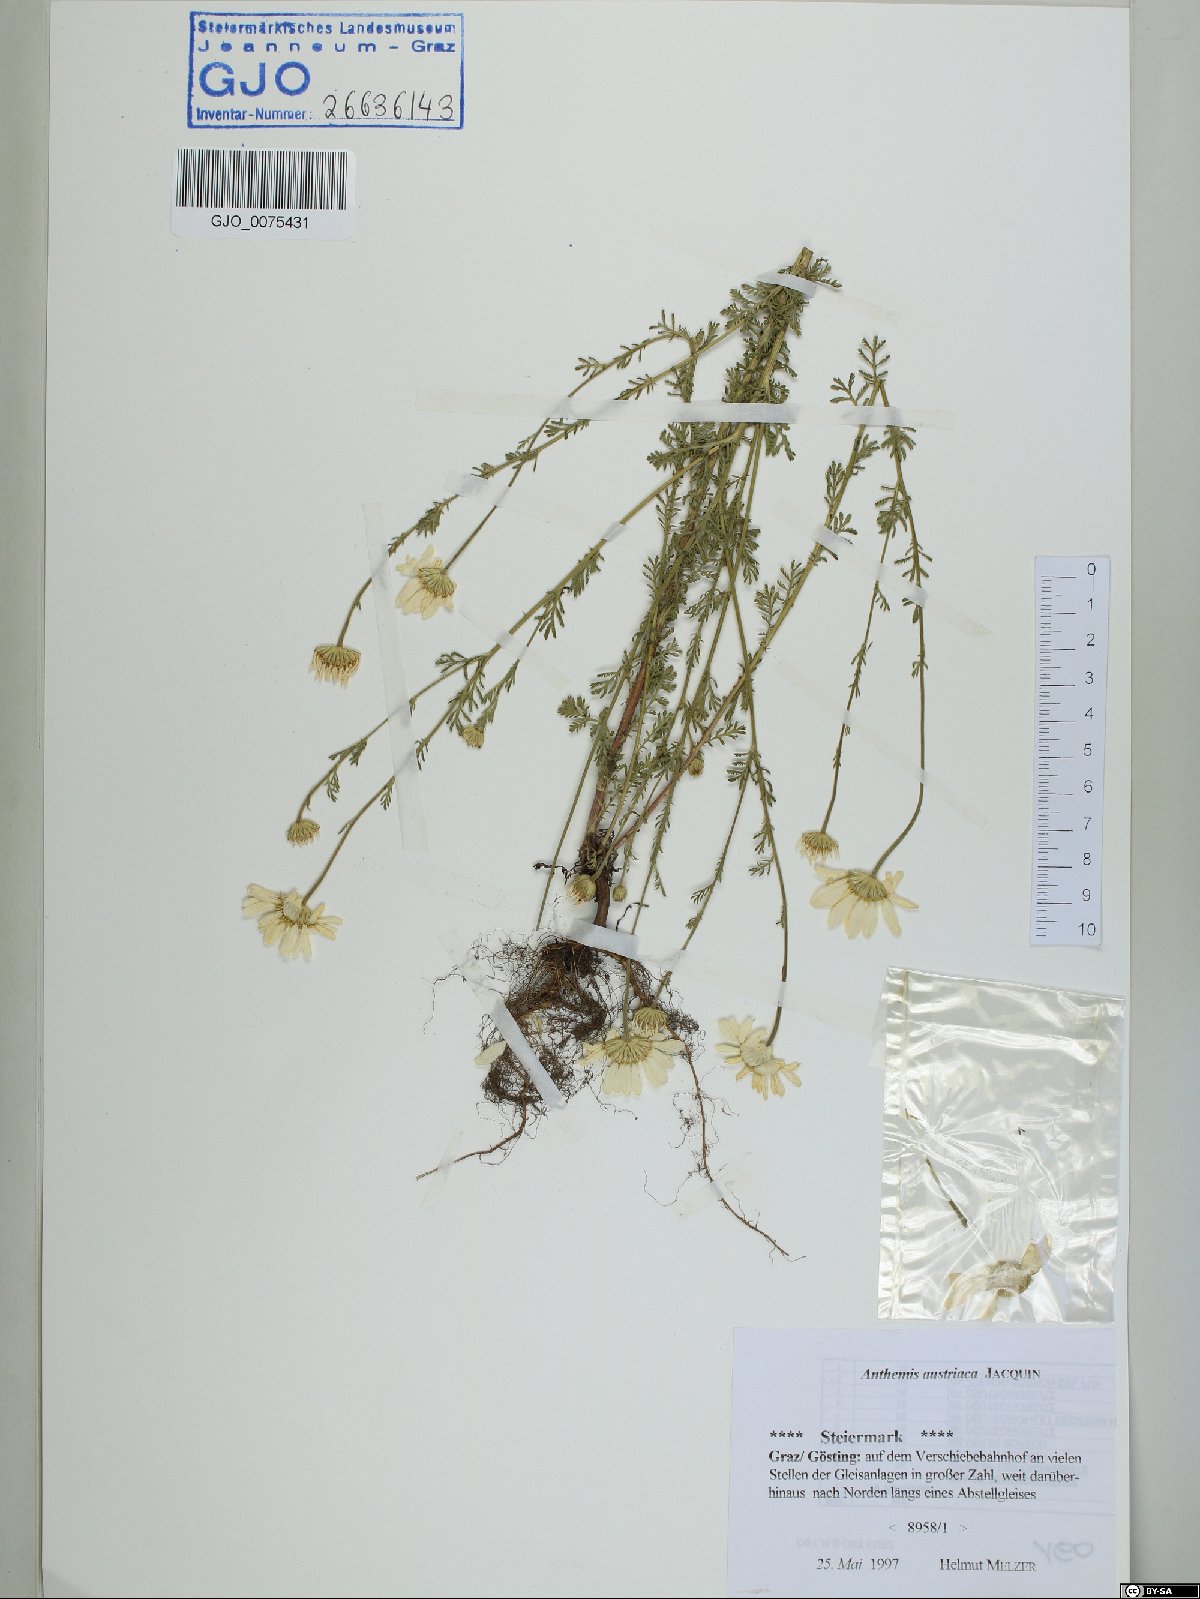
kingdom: Plantae
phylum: Tracheophyta
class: Magnoliopsida
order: Asterales
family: Asteraceae
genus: Cota
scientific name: Cota austriaca
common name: Austrian chamomile
